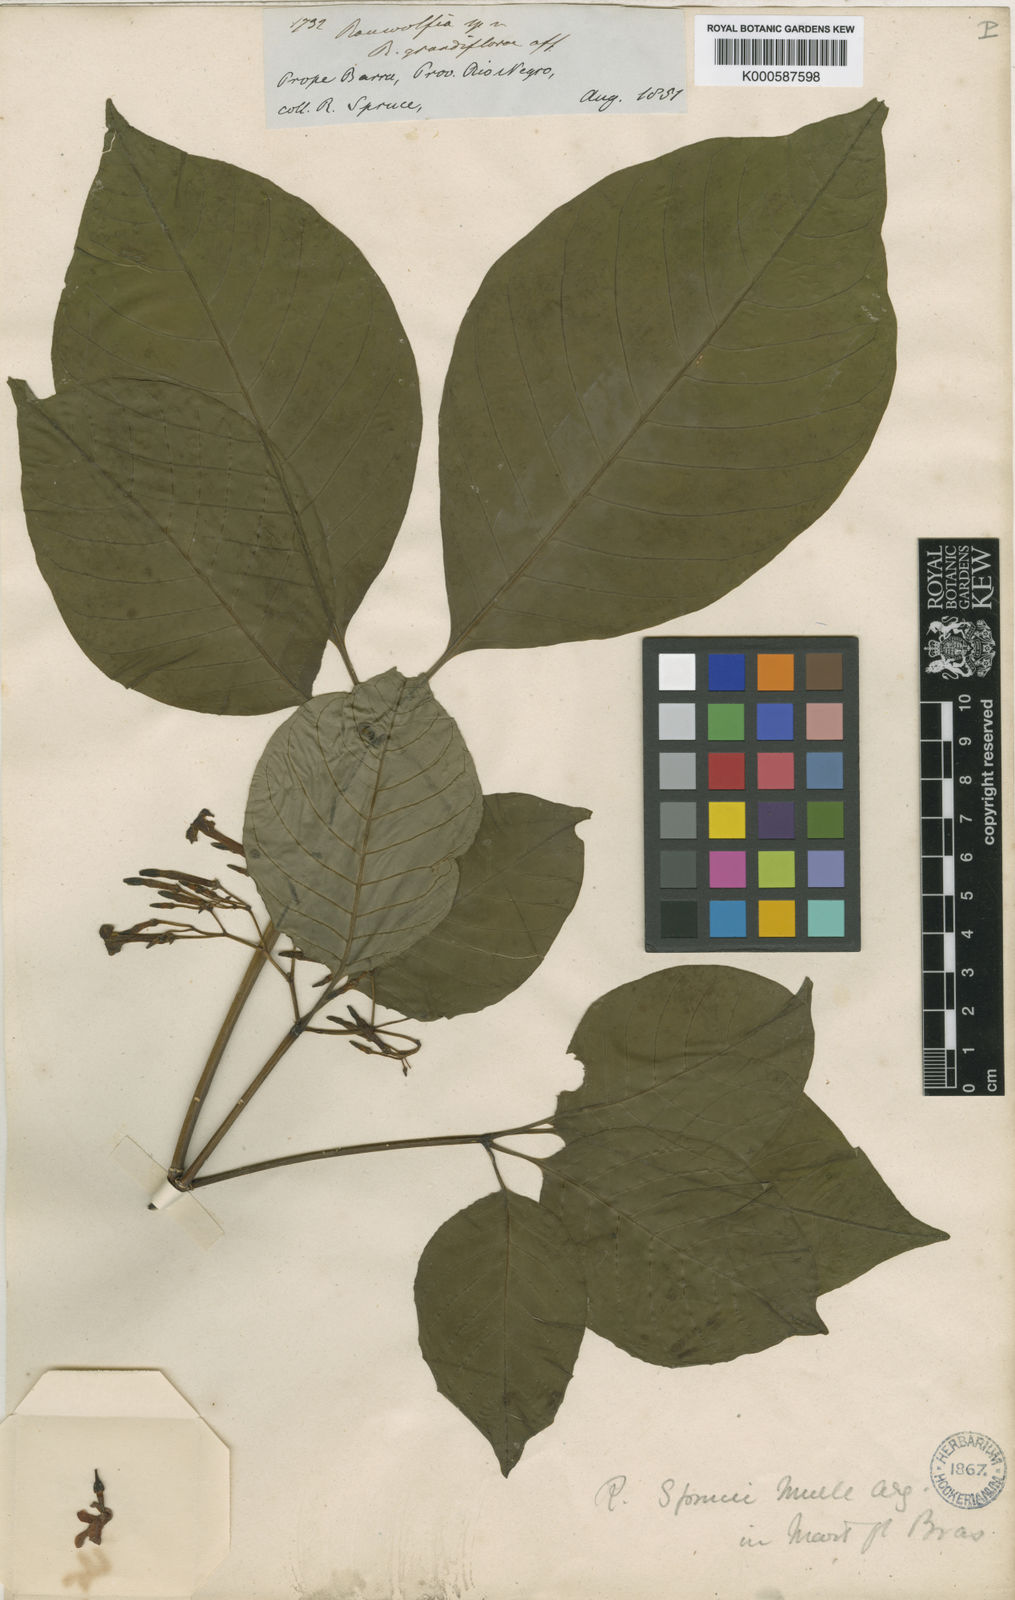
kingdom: Plantae
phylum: Tracheophyta
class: Magnoliopsida
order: Gentianales
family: Apocynaceae
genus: Rauvolfia
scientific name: Rauvolfia
